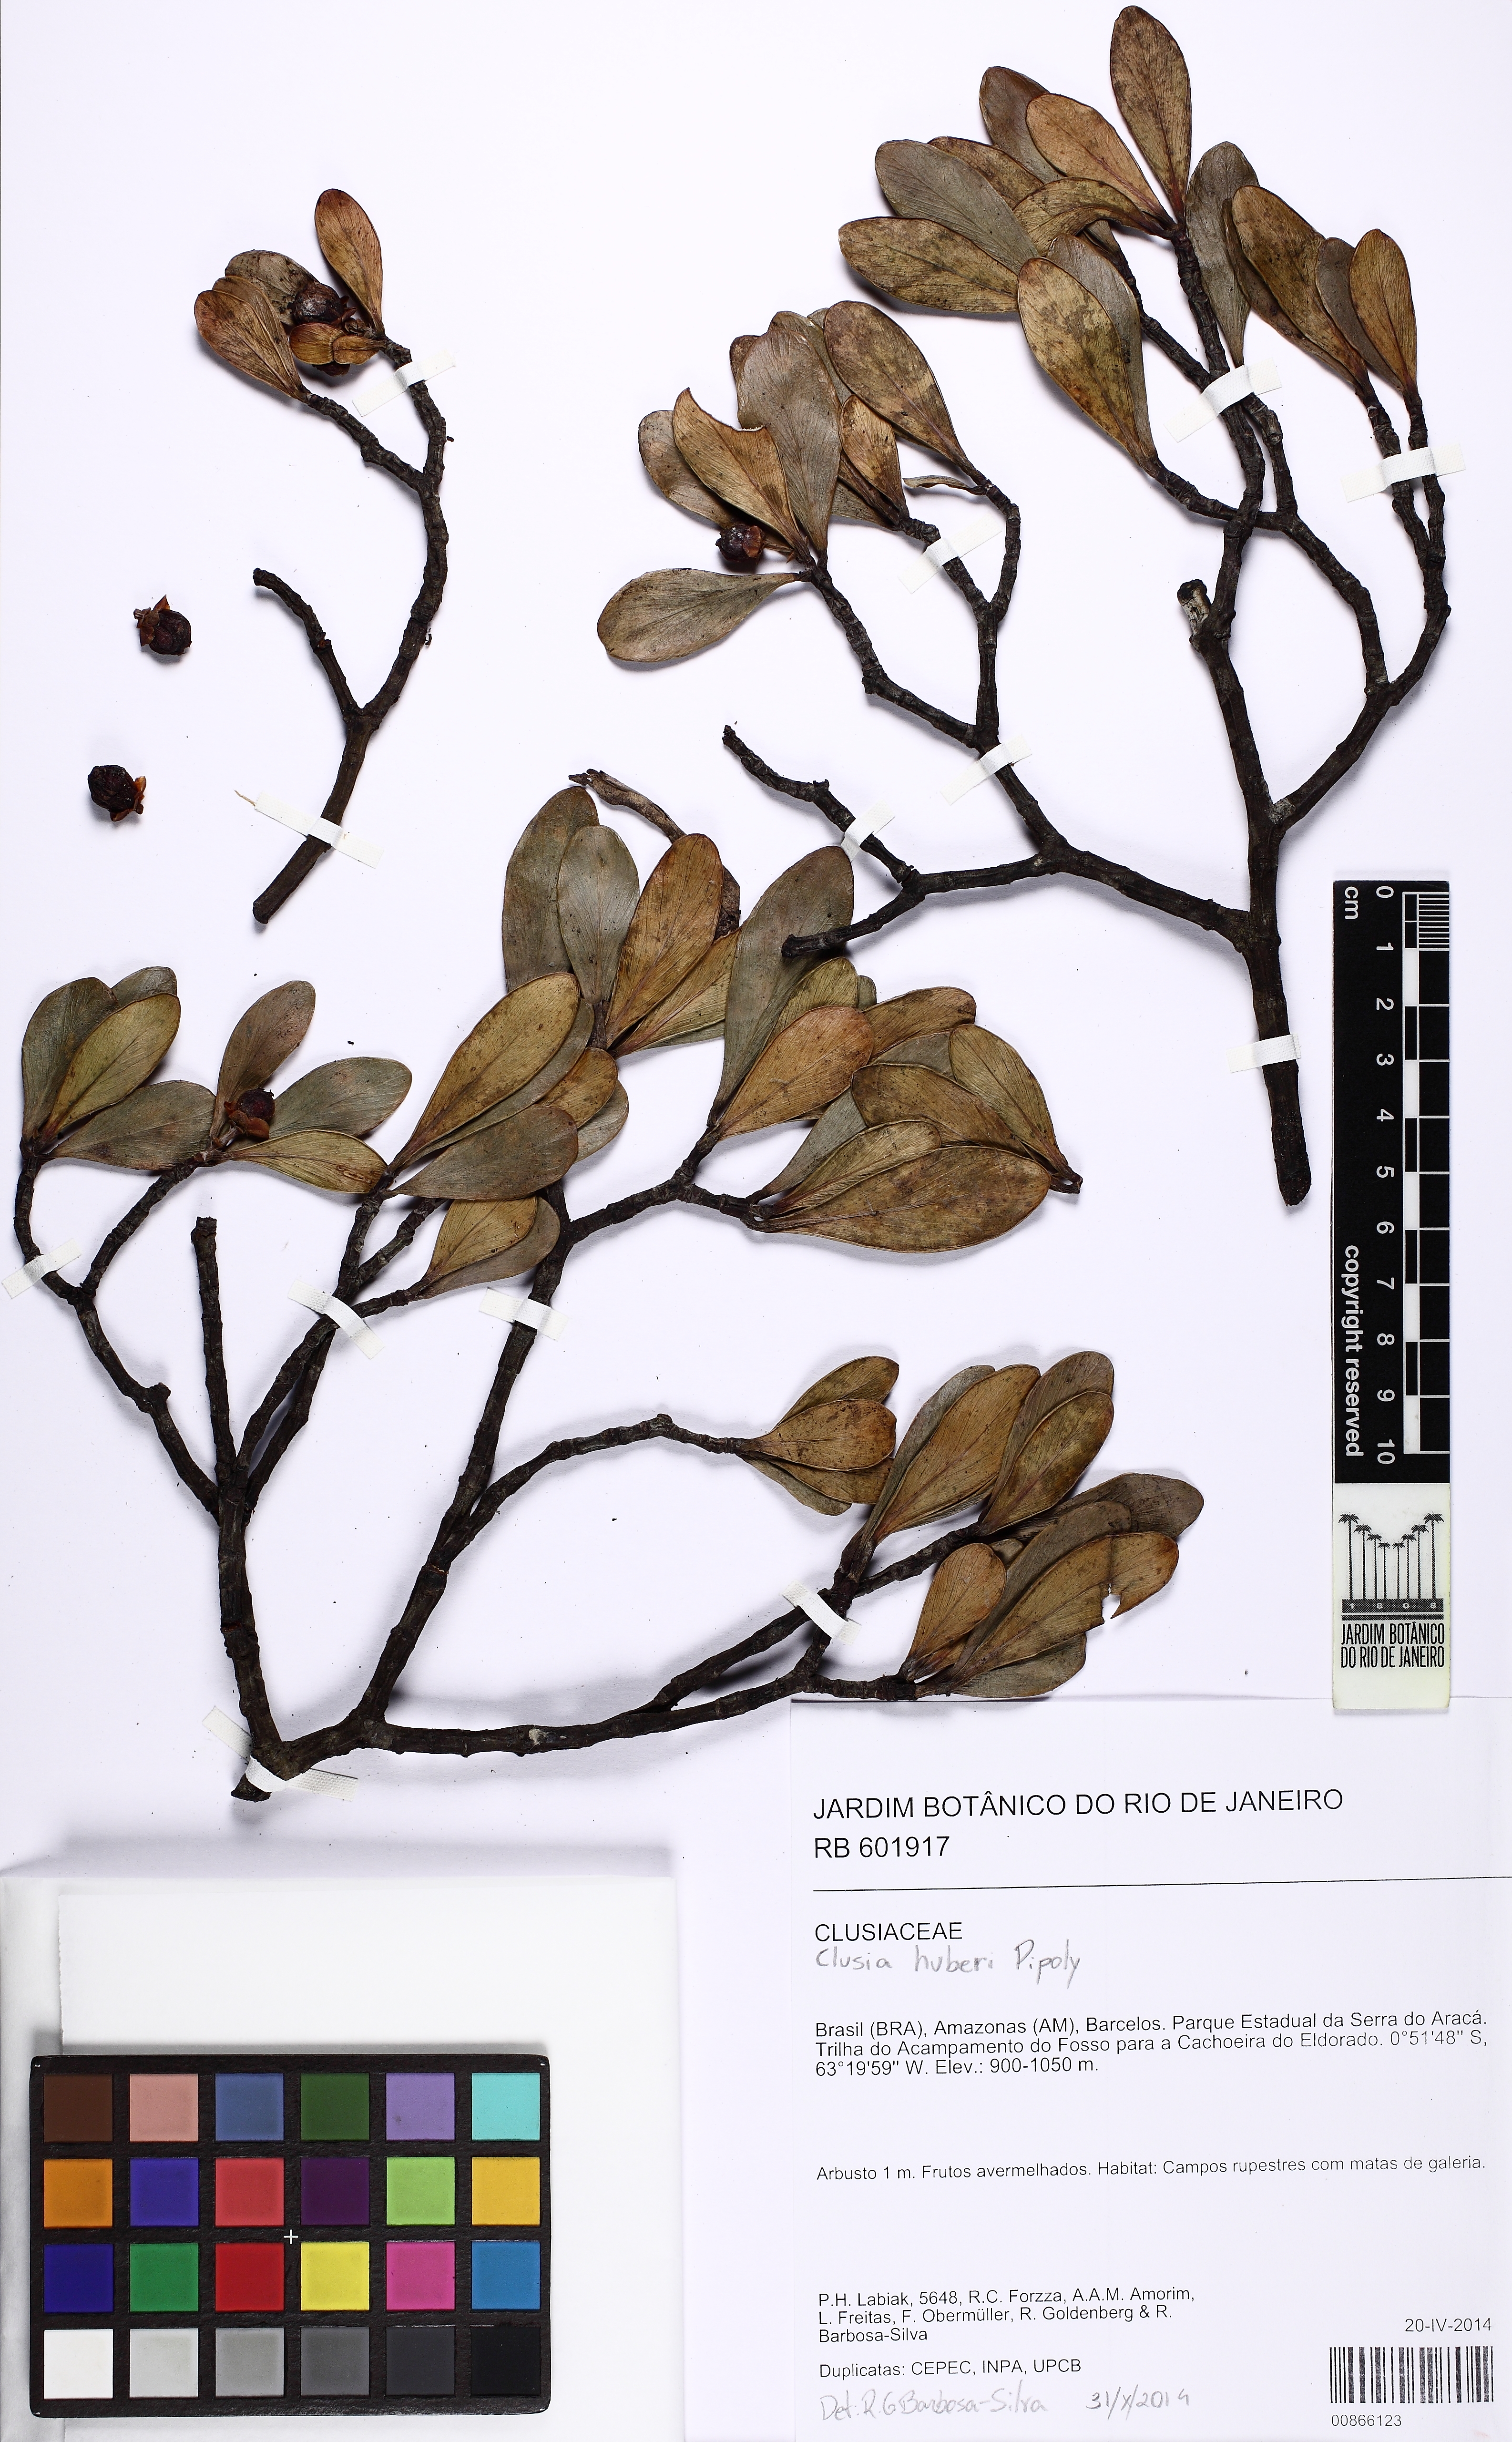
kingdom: Plantae
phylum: Tracheophyta
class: Magnoliopsida
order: Malpighiales
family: Clusiaceae
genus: Clusia
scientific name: Clusia huberi
